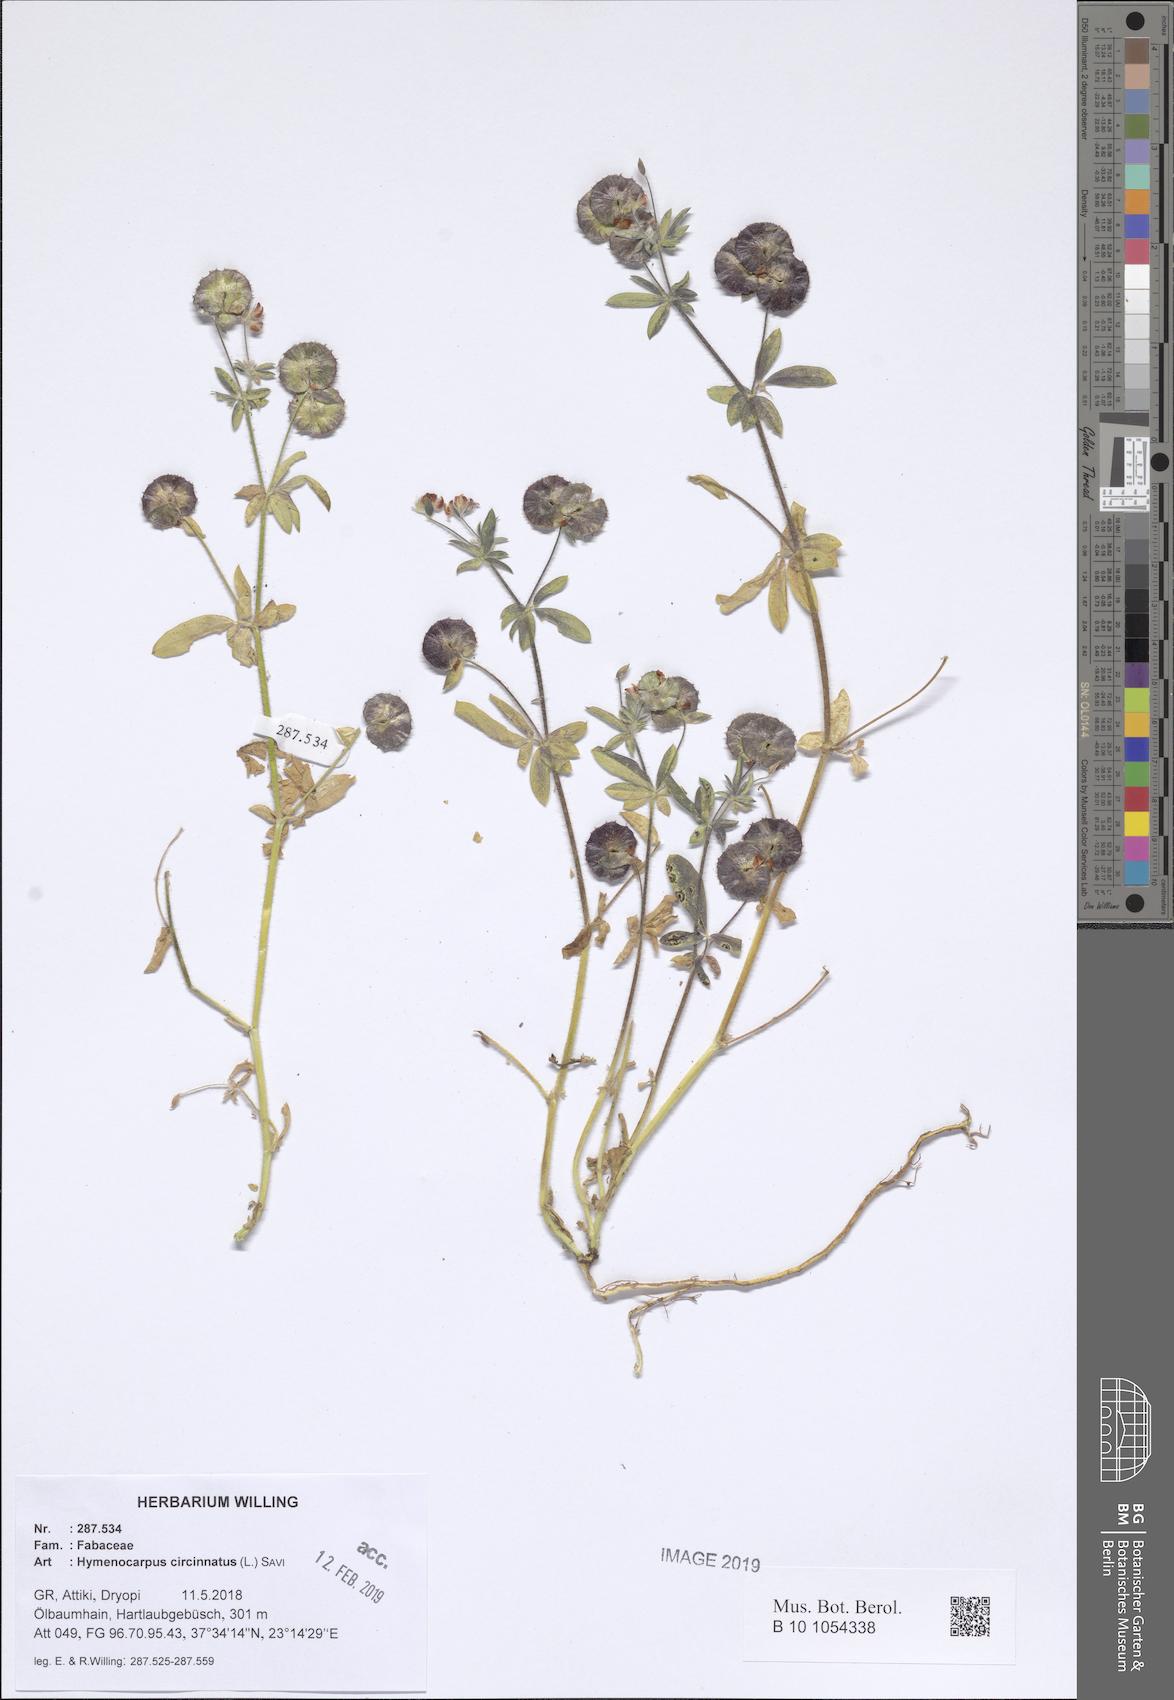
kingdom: Plantae
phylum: Tracheophyta
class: Magnoliopsida
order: Fabales
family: Fabaceae
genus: Anthyllis
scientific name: Anthyllis circinnata
